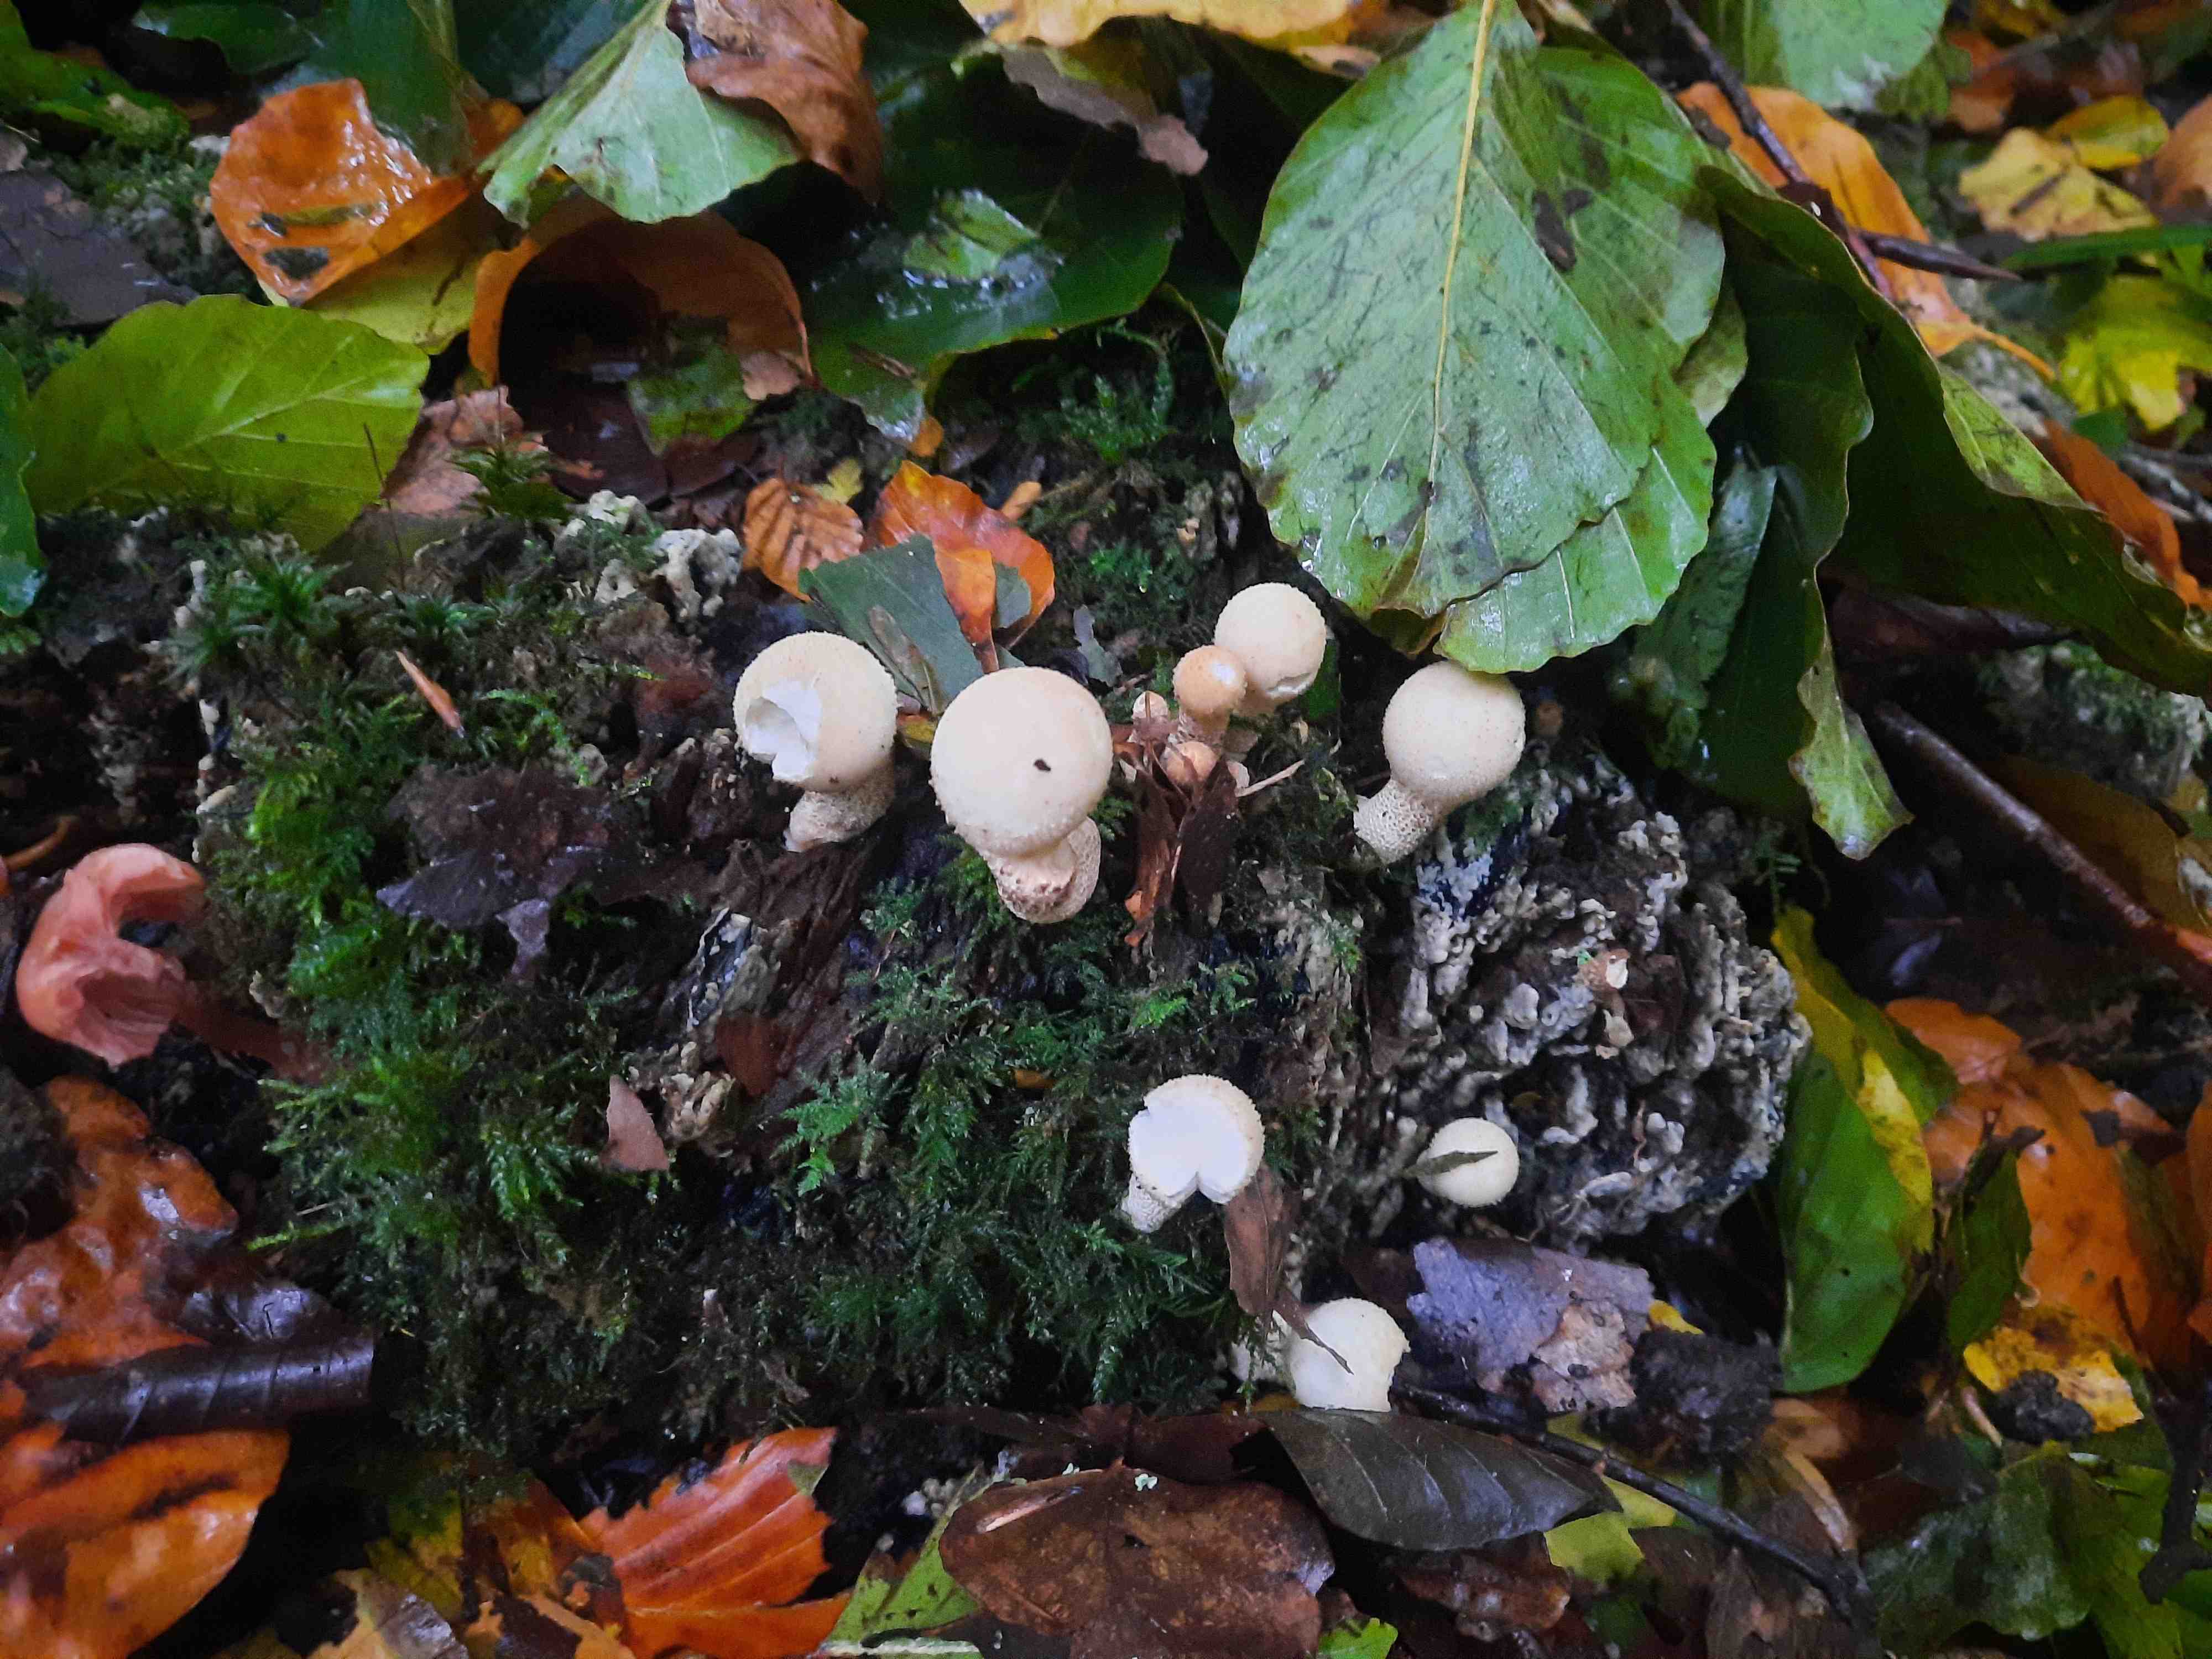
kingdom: Fungi
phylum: Basidiomycota
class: Agaricomycetes
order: Agaricales
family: Lycoperdaceae
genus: Apioperdon
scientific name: Apioperdon pyriforme
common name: pære-støvbold
